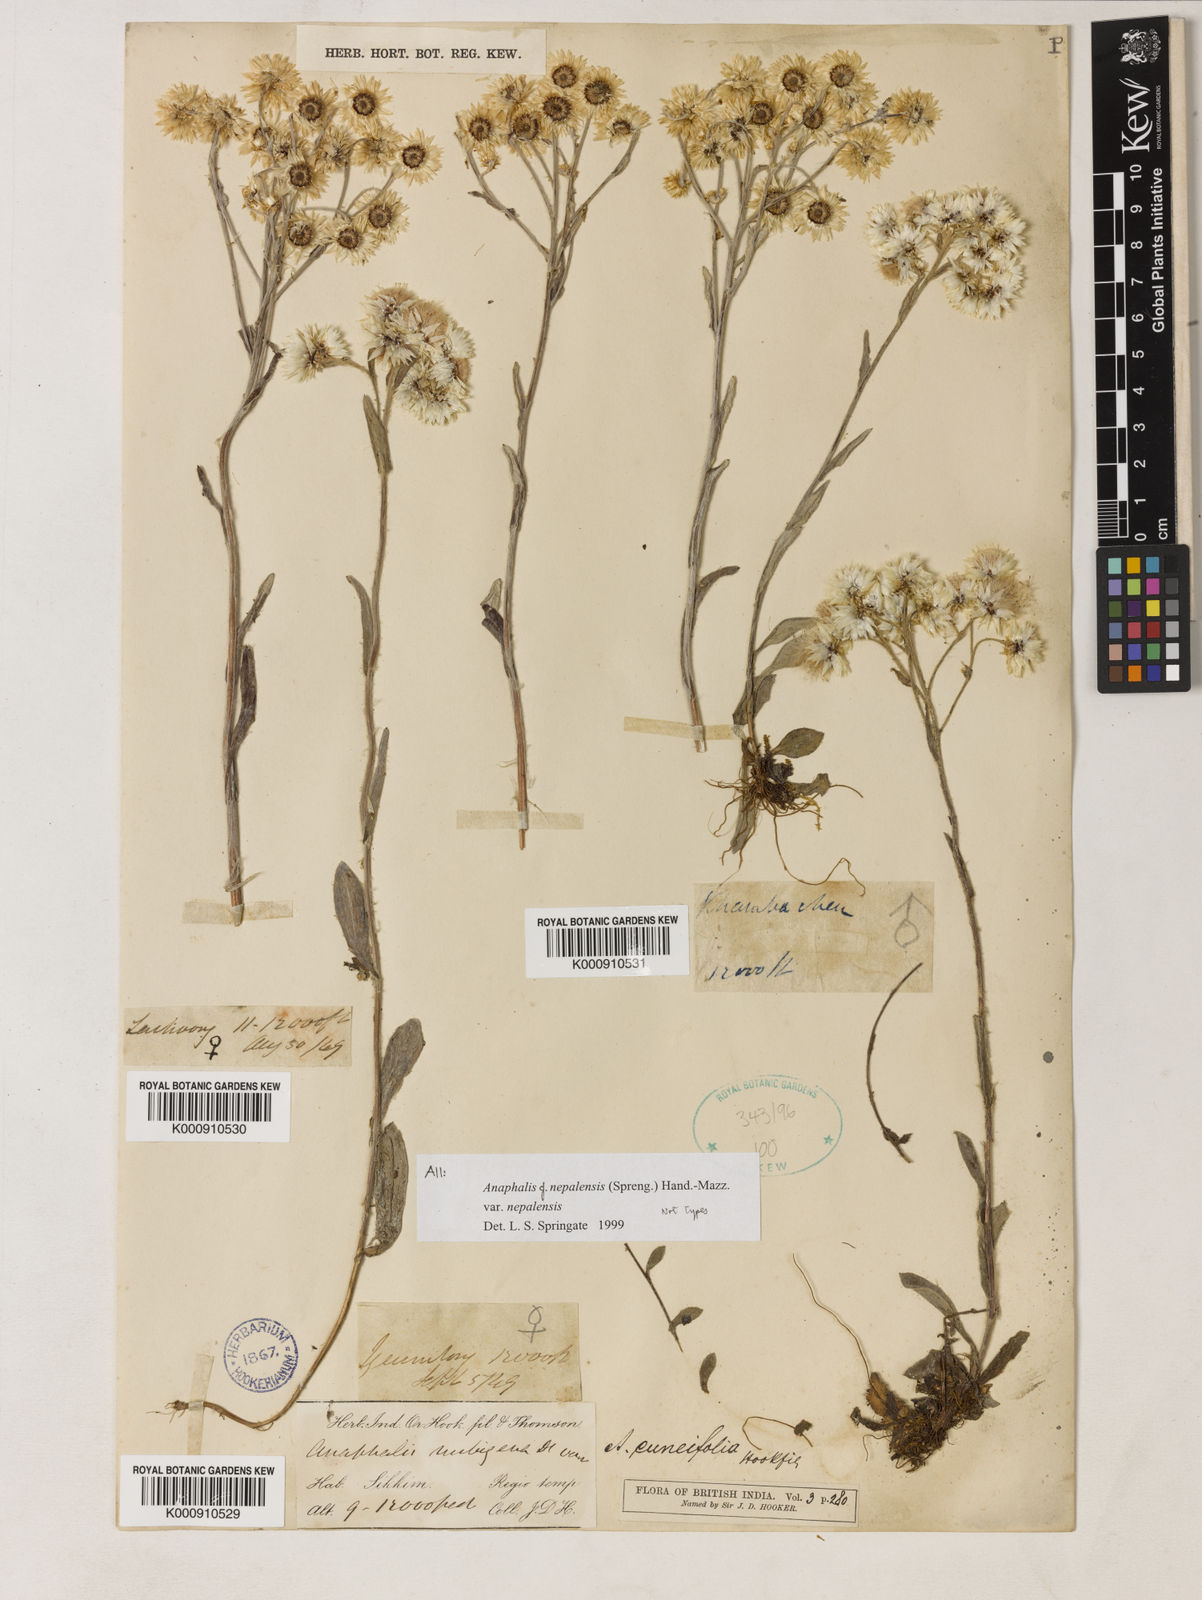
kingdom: Plantae
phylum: Tracheophyta
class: Magnoliopsida
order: Asterales
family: Asteraceae
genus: Anaphalis
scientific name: Anaphalis nepalensis
